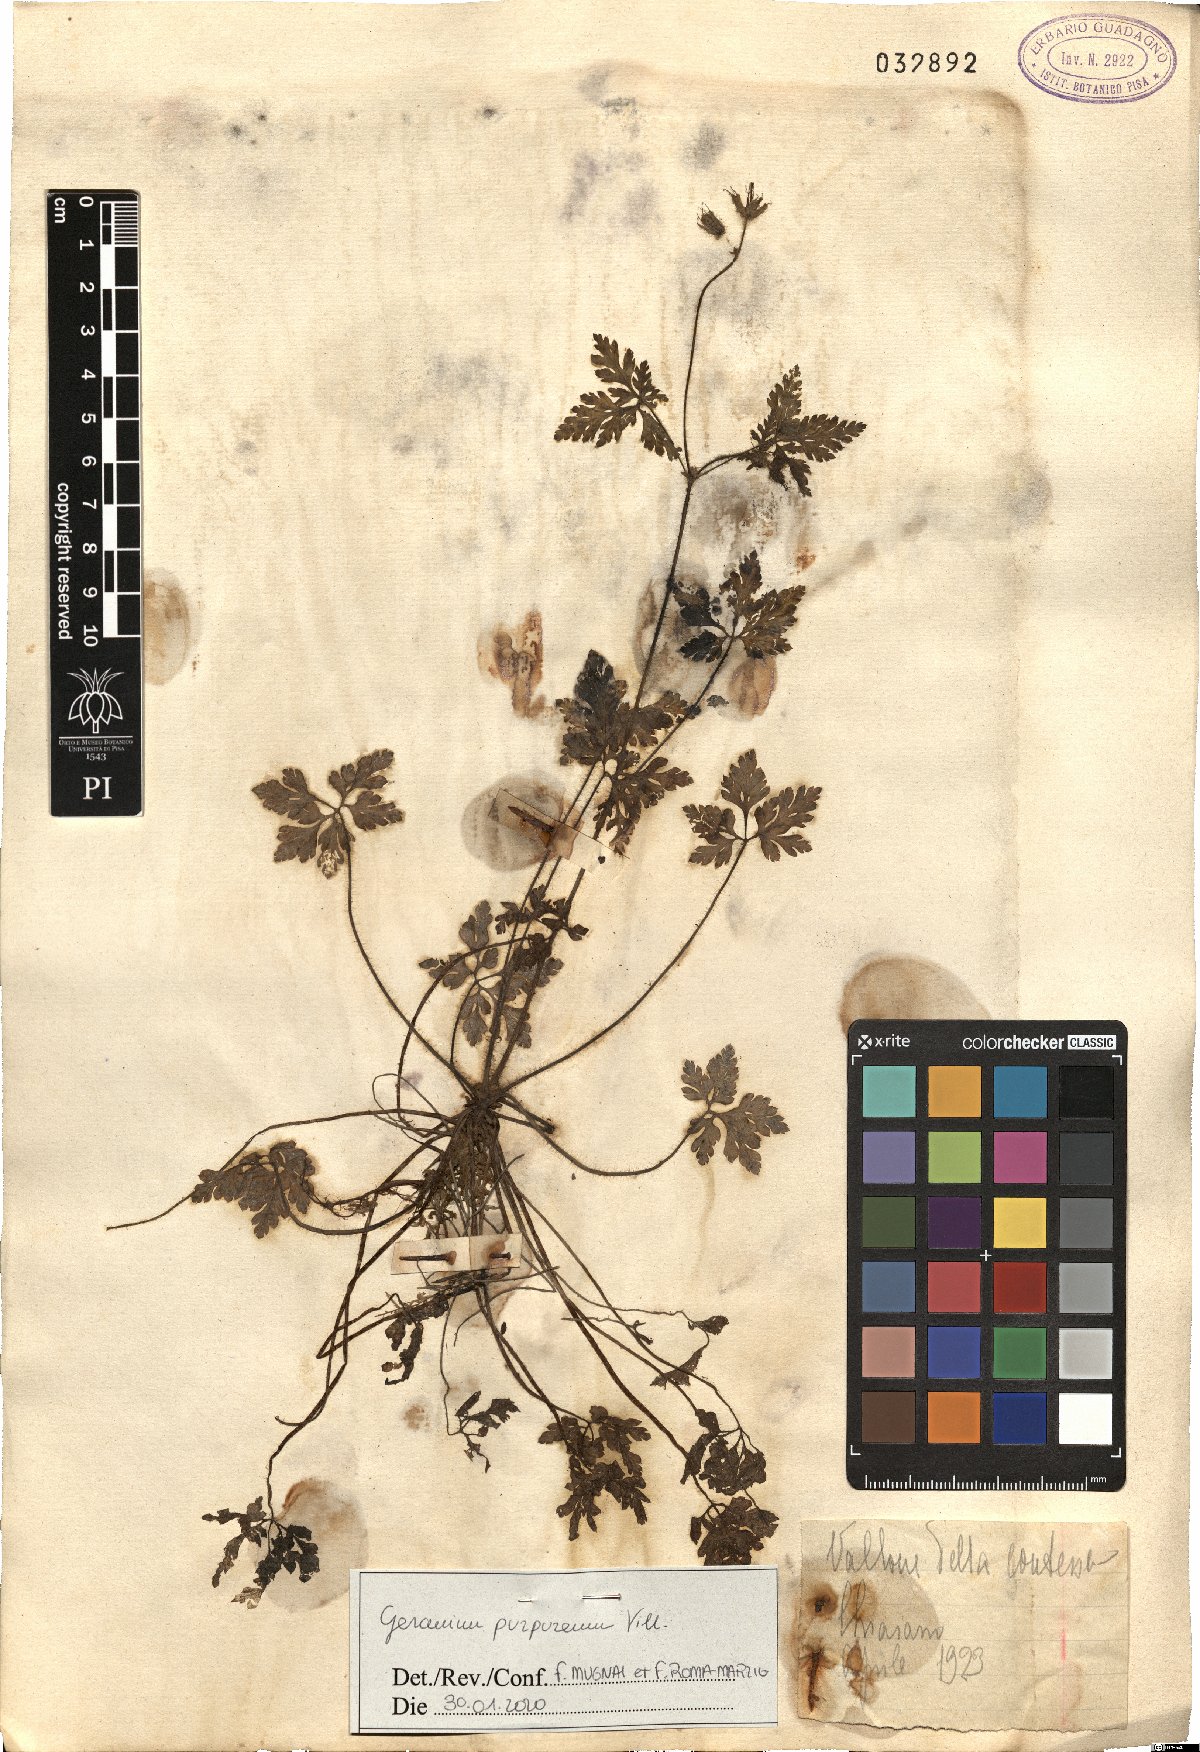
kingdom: Plantae
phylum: Tracheophyta
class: Magnoliopsida
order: Geraniales
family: Geraniaceae
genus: Geranium
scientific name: Geranium purpureum
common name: Little-robin
